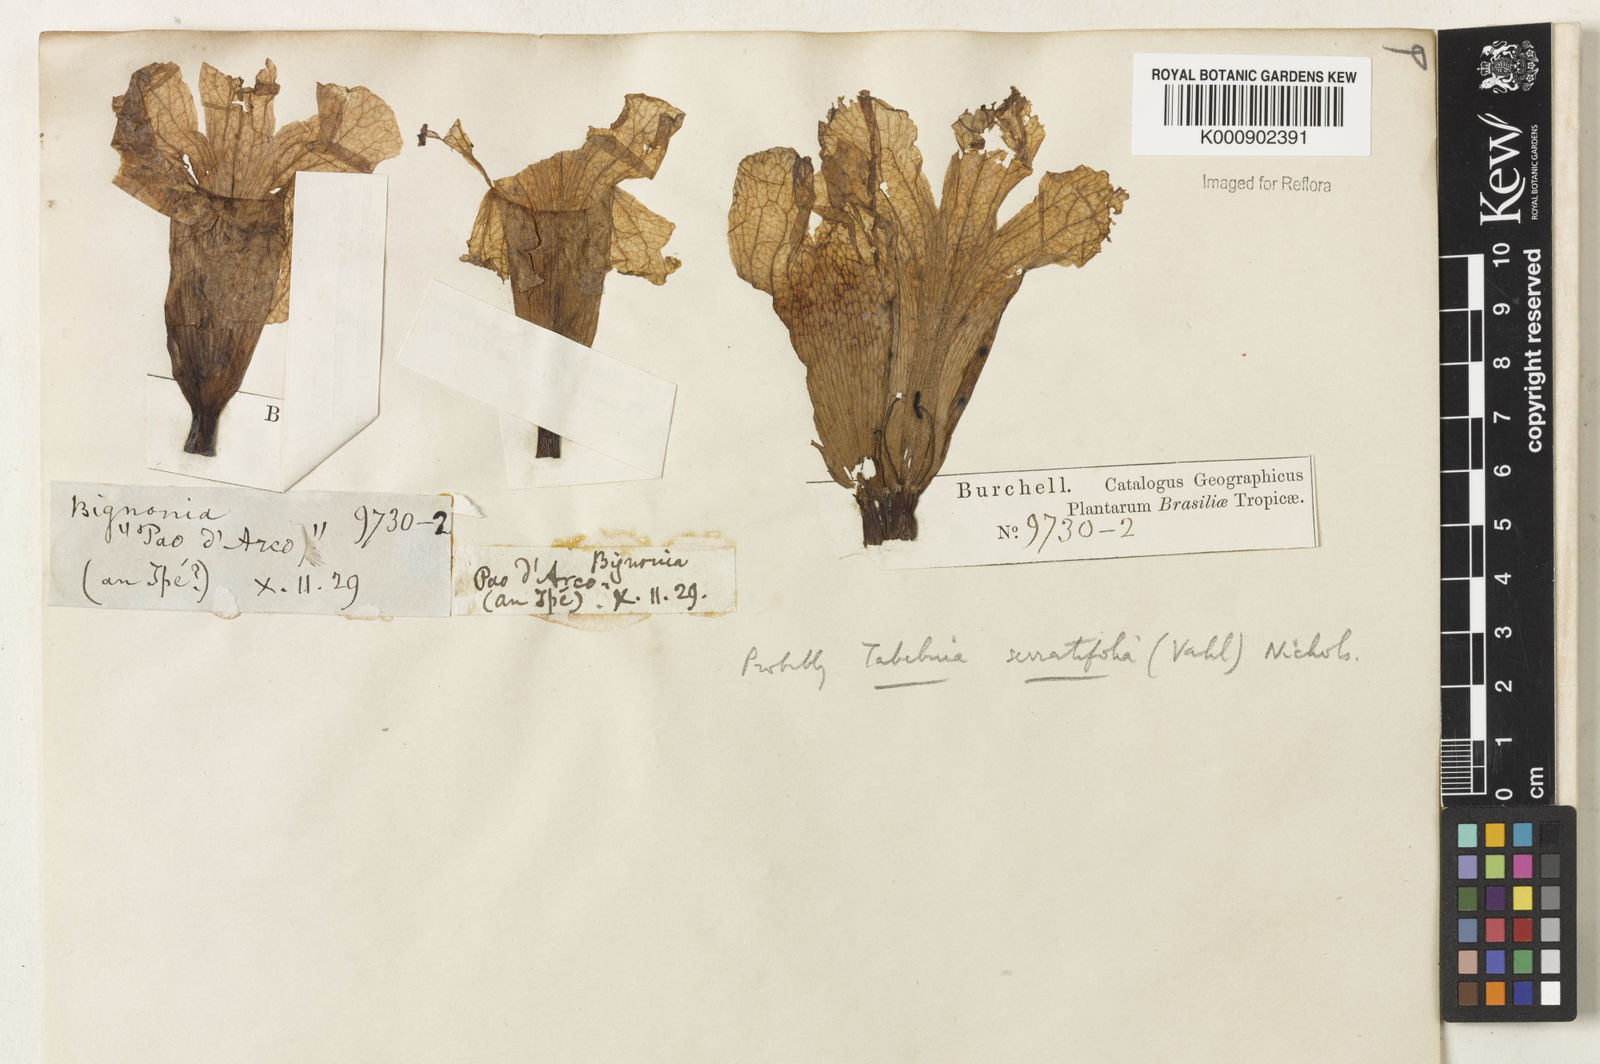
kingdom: Plantae
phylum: Tracheophyta
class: Magnoliopsida
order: Lamiales
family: Bignoniaceae
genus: Handroanthus
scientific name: Handroanthus serratifolius
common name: Yellow ipe
